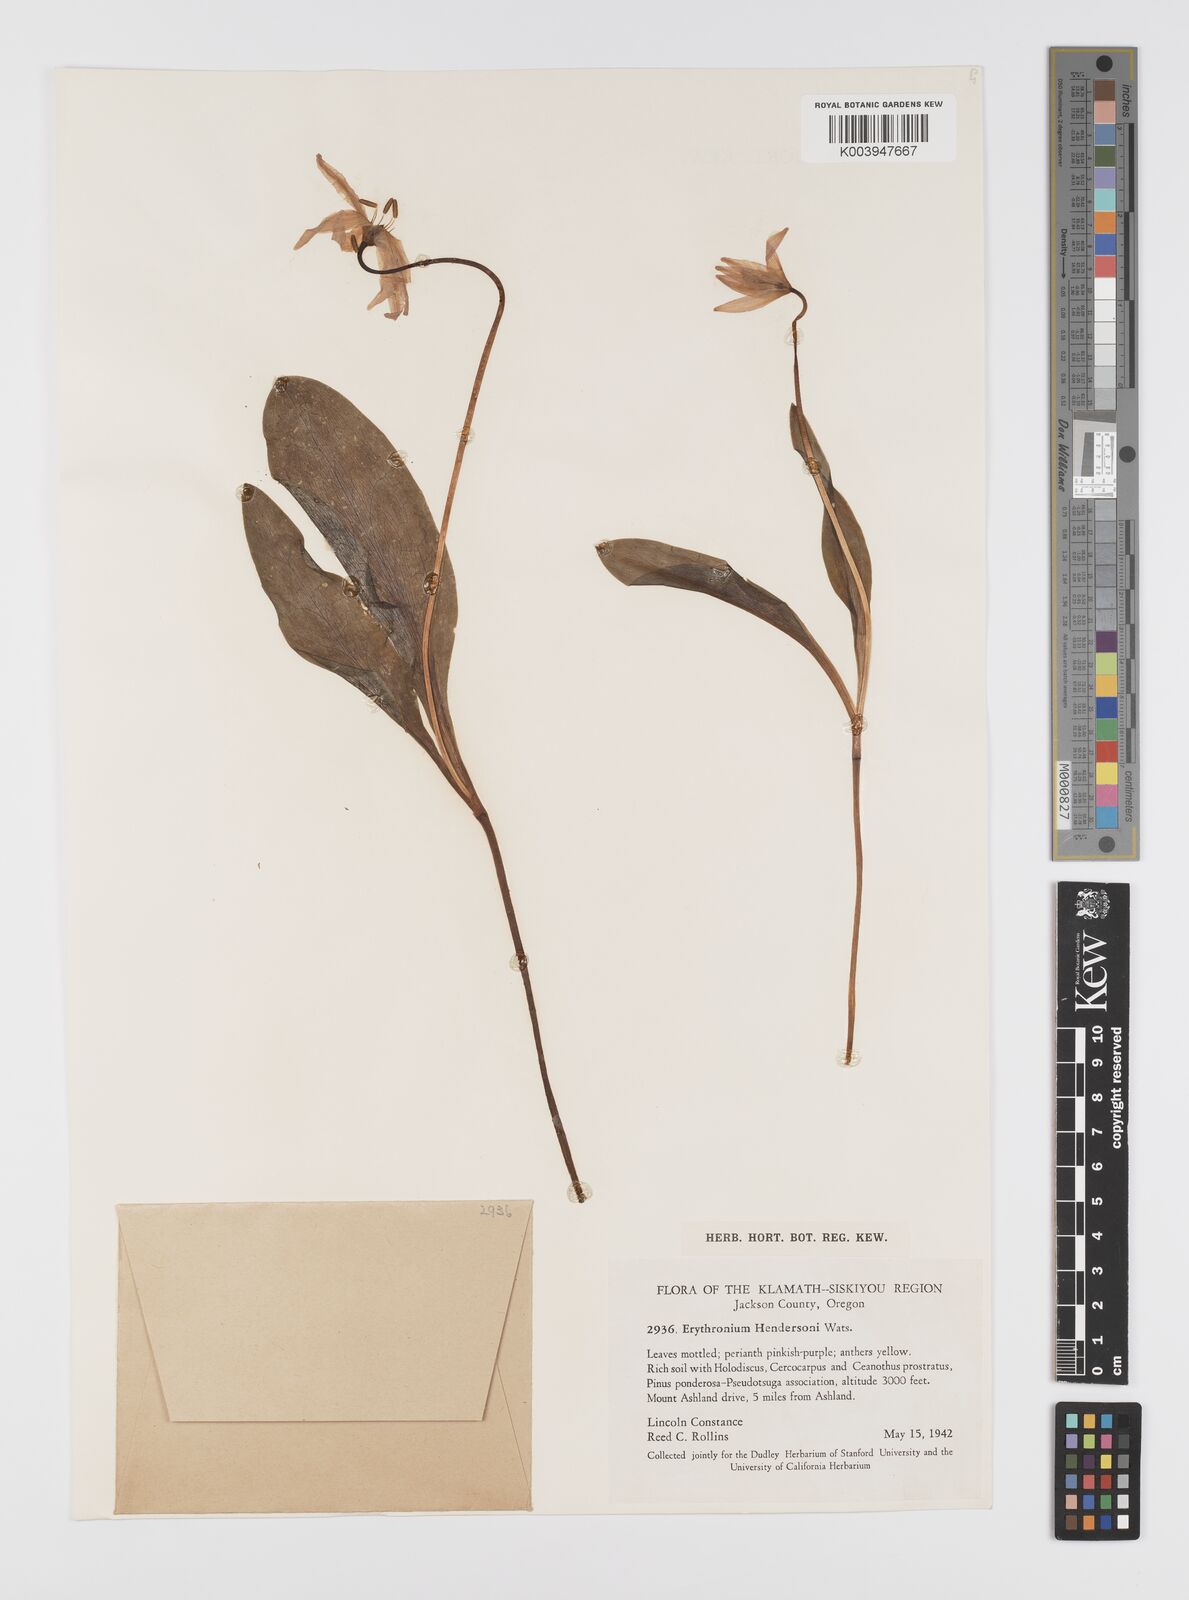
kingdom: Plantae
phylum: Tracheophyta
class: Liliopsida
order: Liliales
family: Liliaceae
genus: Erythronium
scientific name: Erythronium hendersonii
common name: Henderson's fawn-lily
